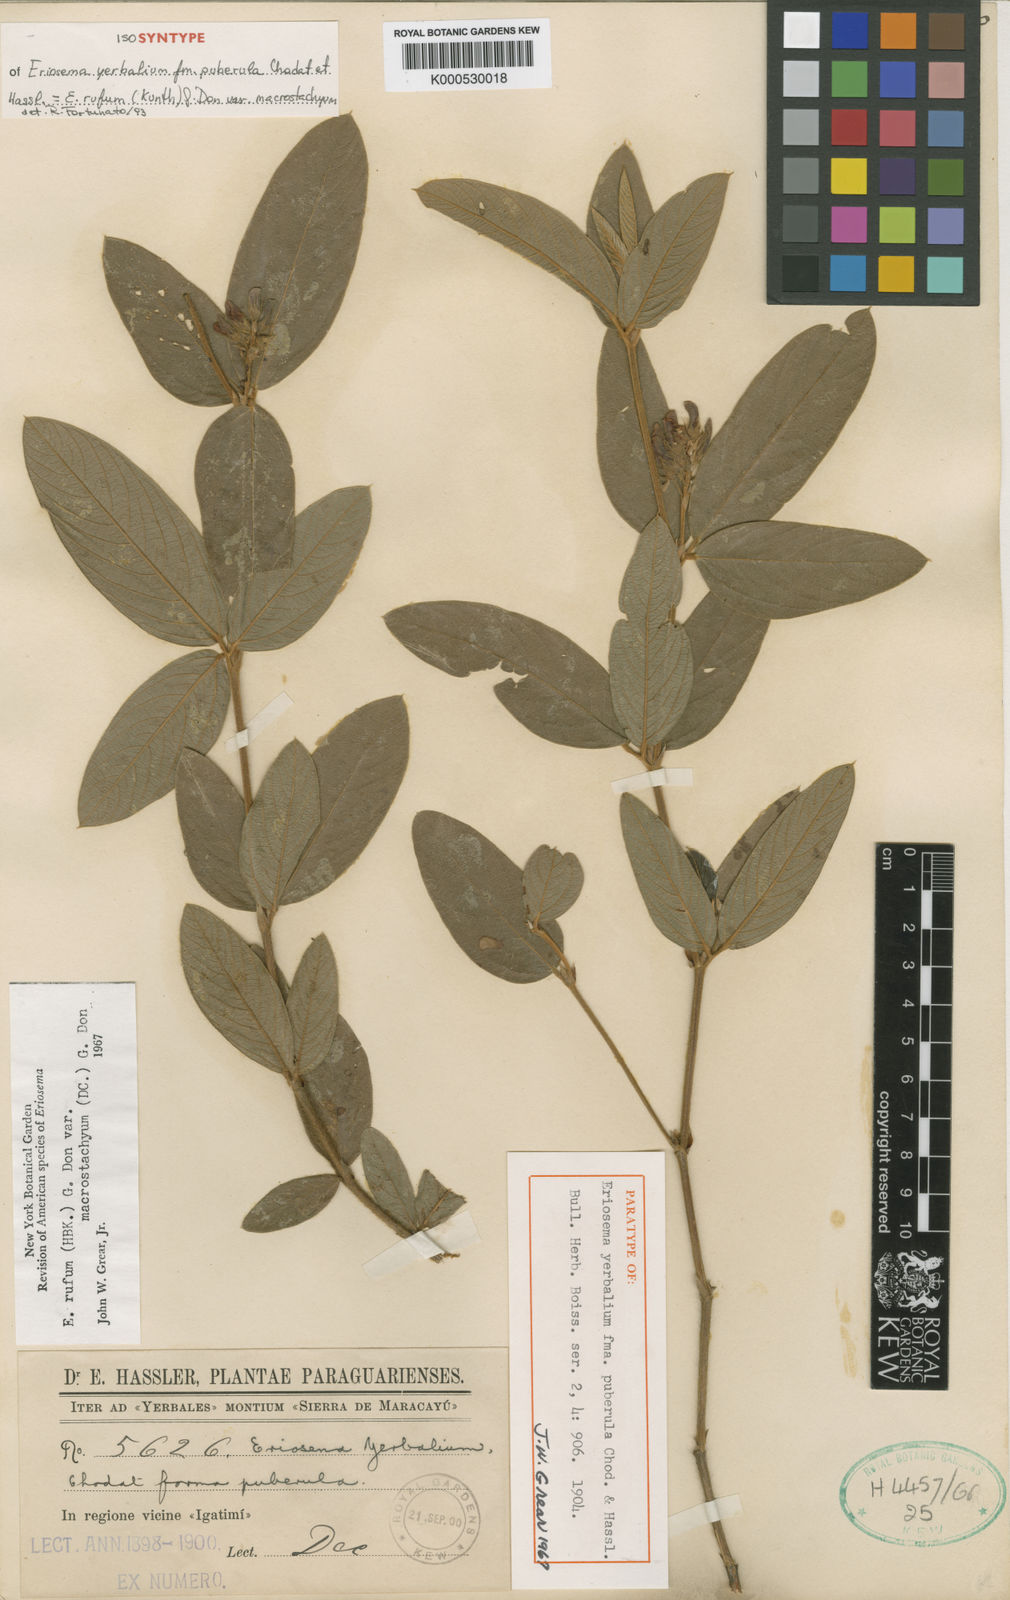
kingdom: Plantae
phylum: Tracheophyta
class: Magnoliopsida
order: Fabales
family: Fabaceae
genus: Eriosema
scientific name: Eriosema rufum
